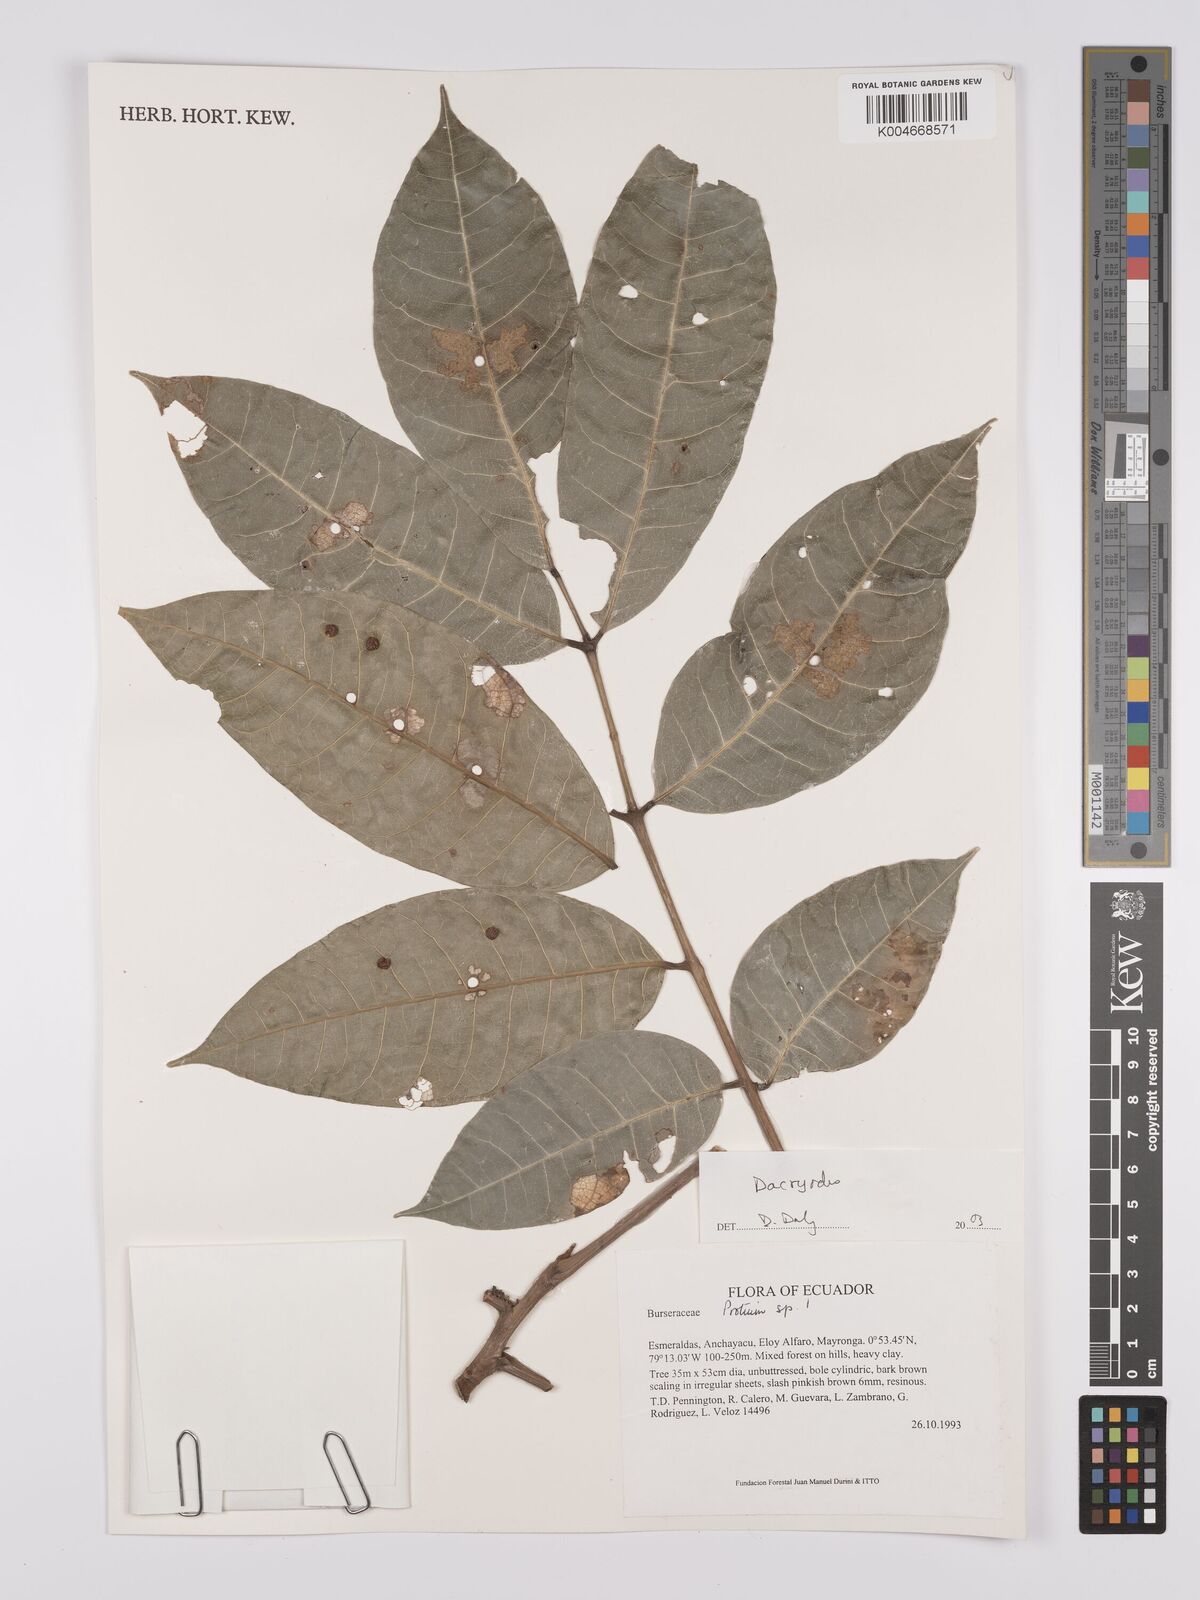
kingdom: Plantae
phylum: Tracheophyta
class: Magnoliopsida
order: Sapindales
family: Burseraceae
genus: Dacryodes
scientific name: Dacryodes
